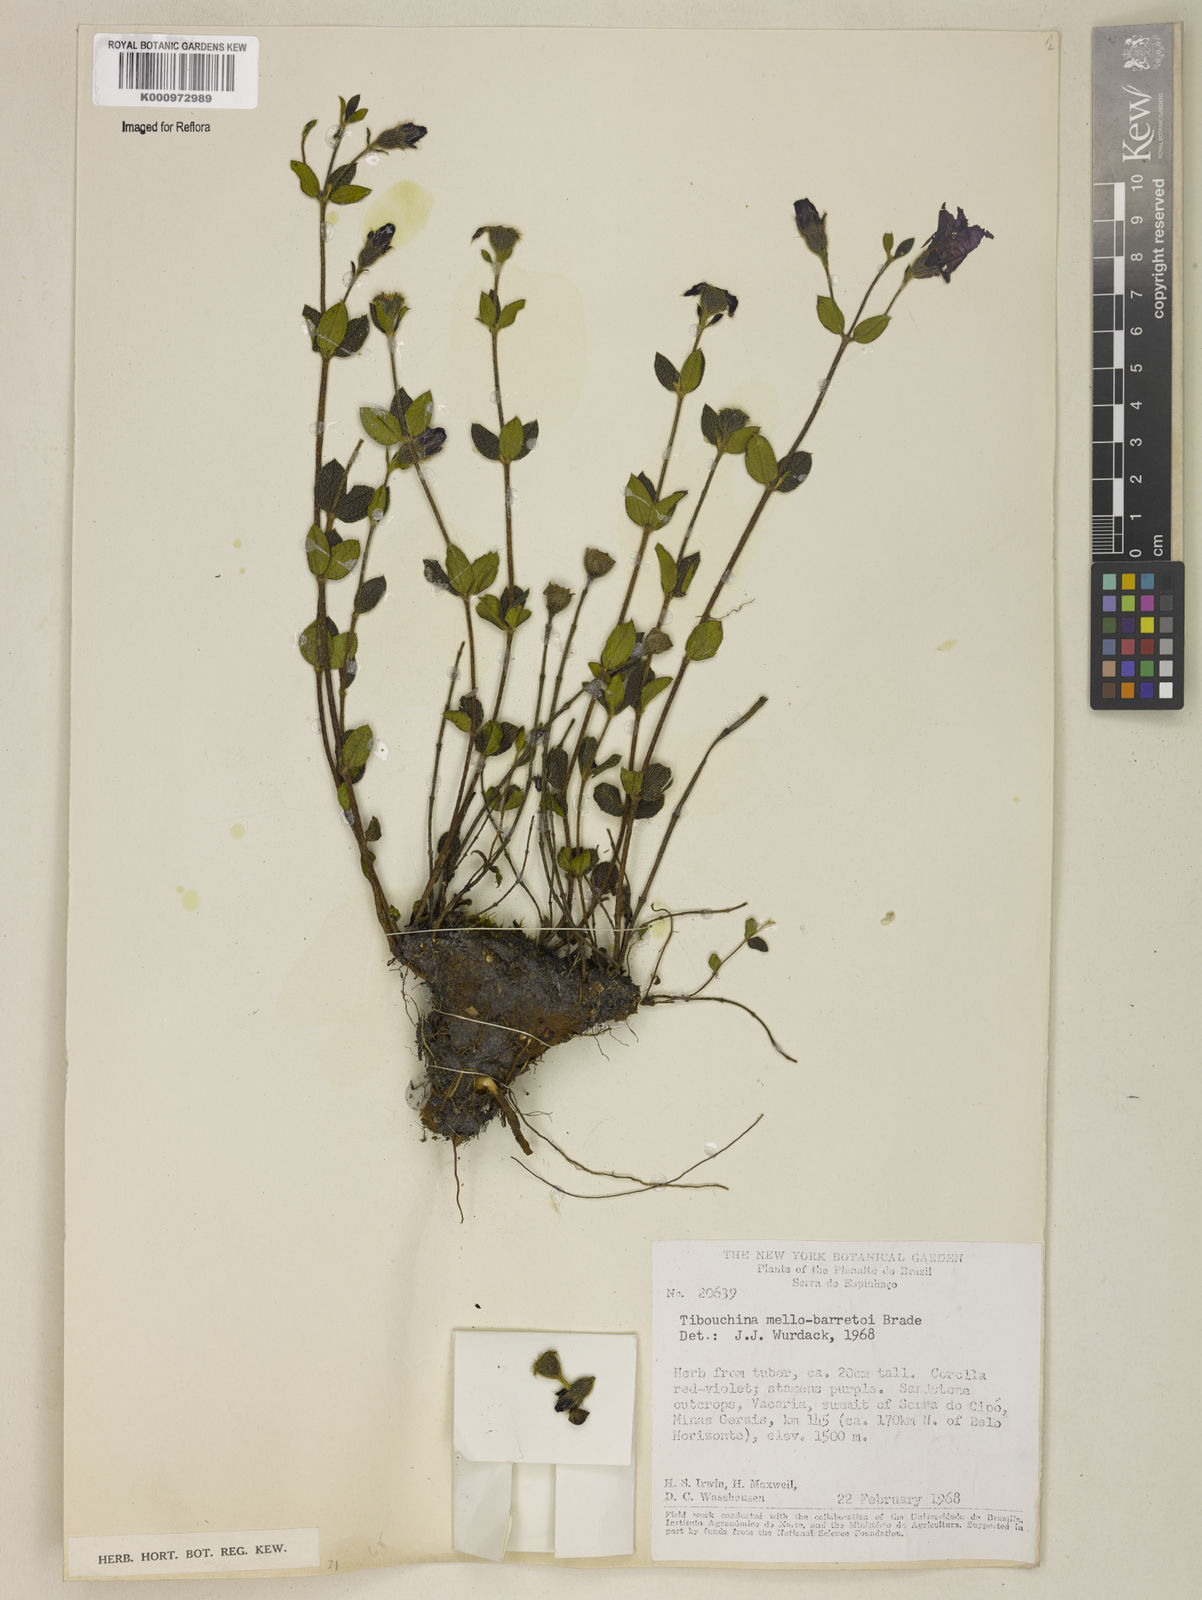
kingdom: Plantae
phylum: Tracheophyta
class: Magnoliopsida
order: Myrtales
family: Melastomataceae
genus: Pleroma
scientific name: Pleroma mello-barretoi
